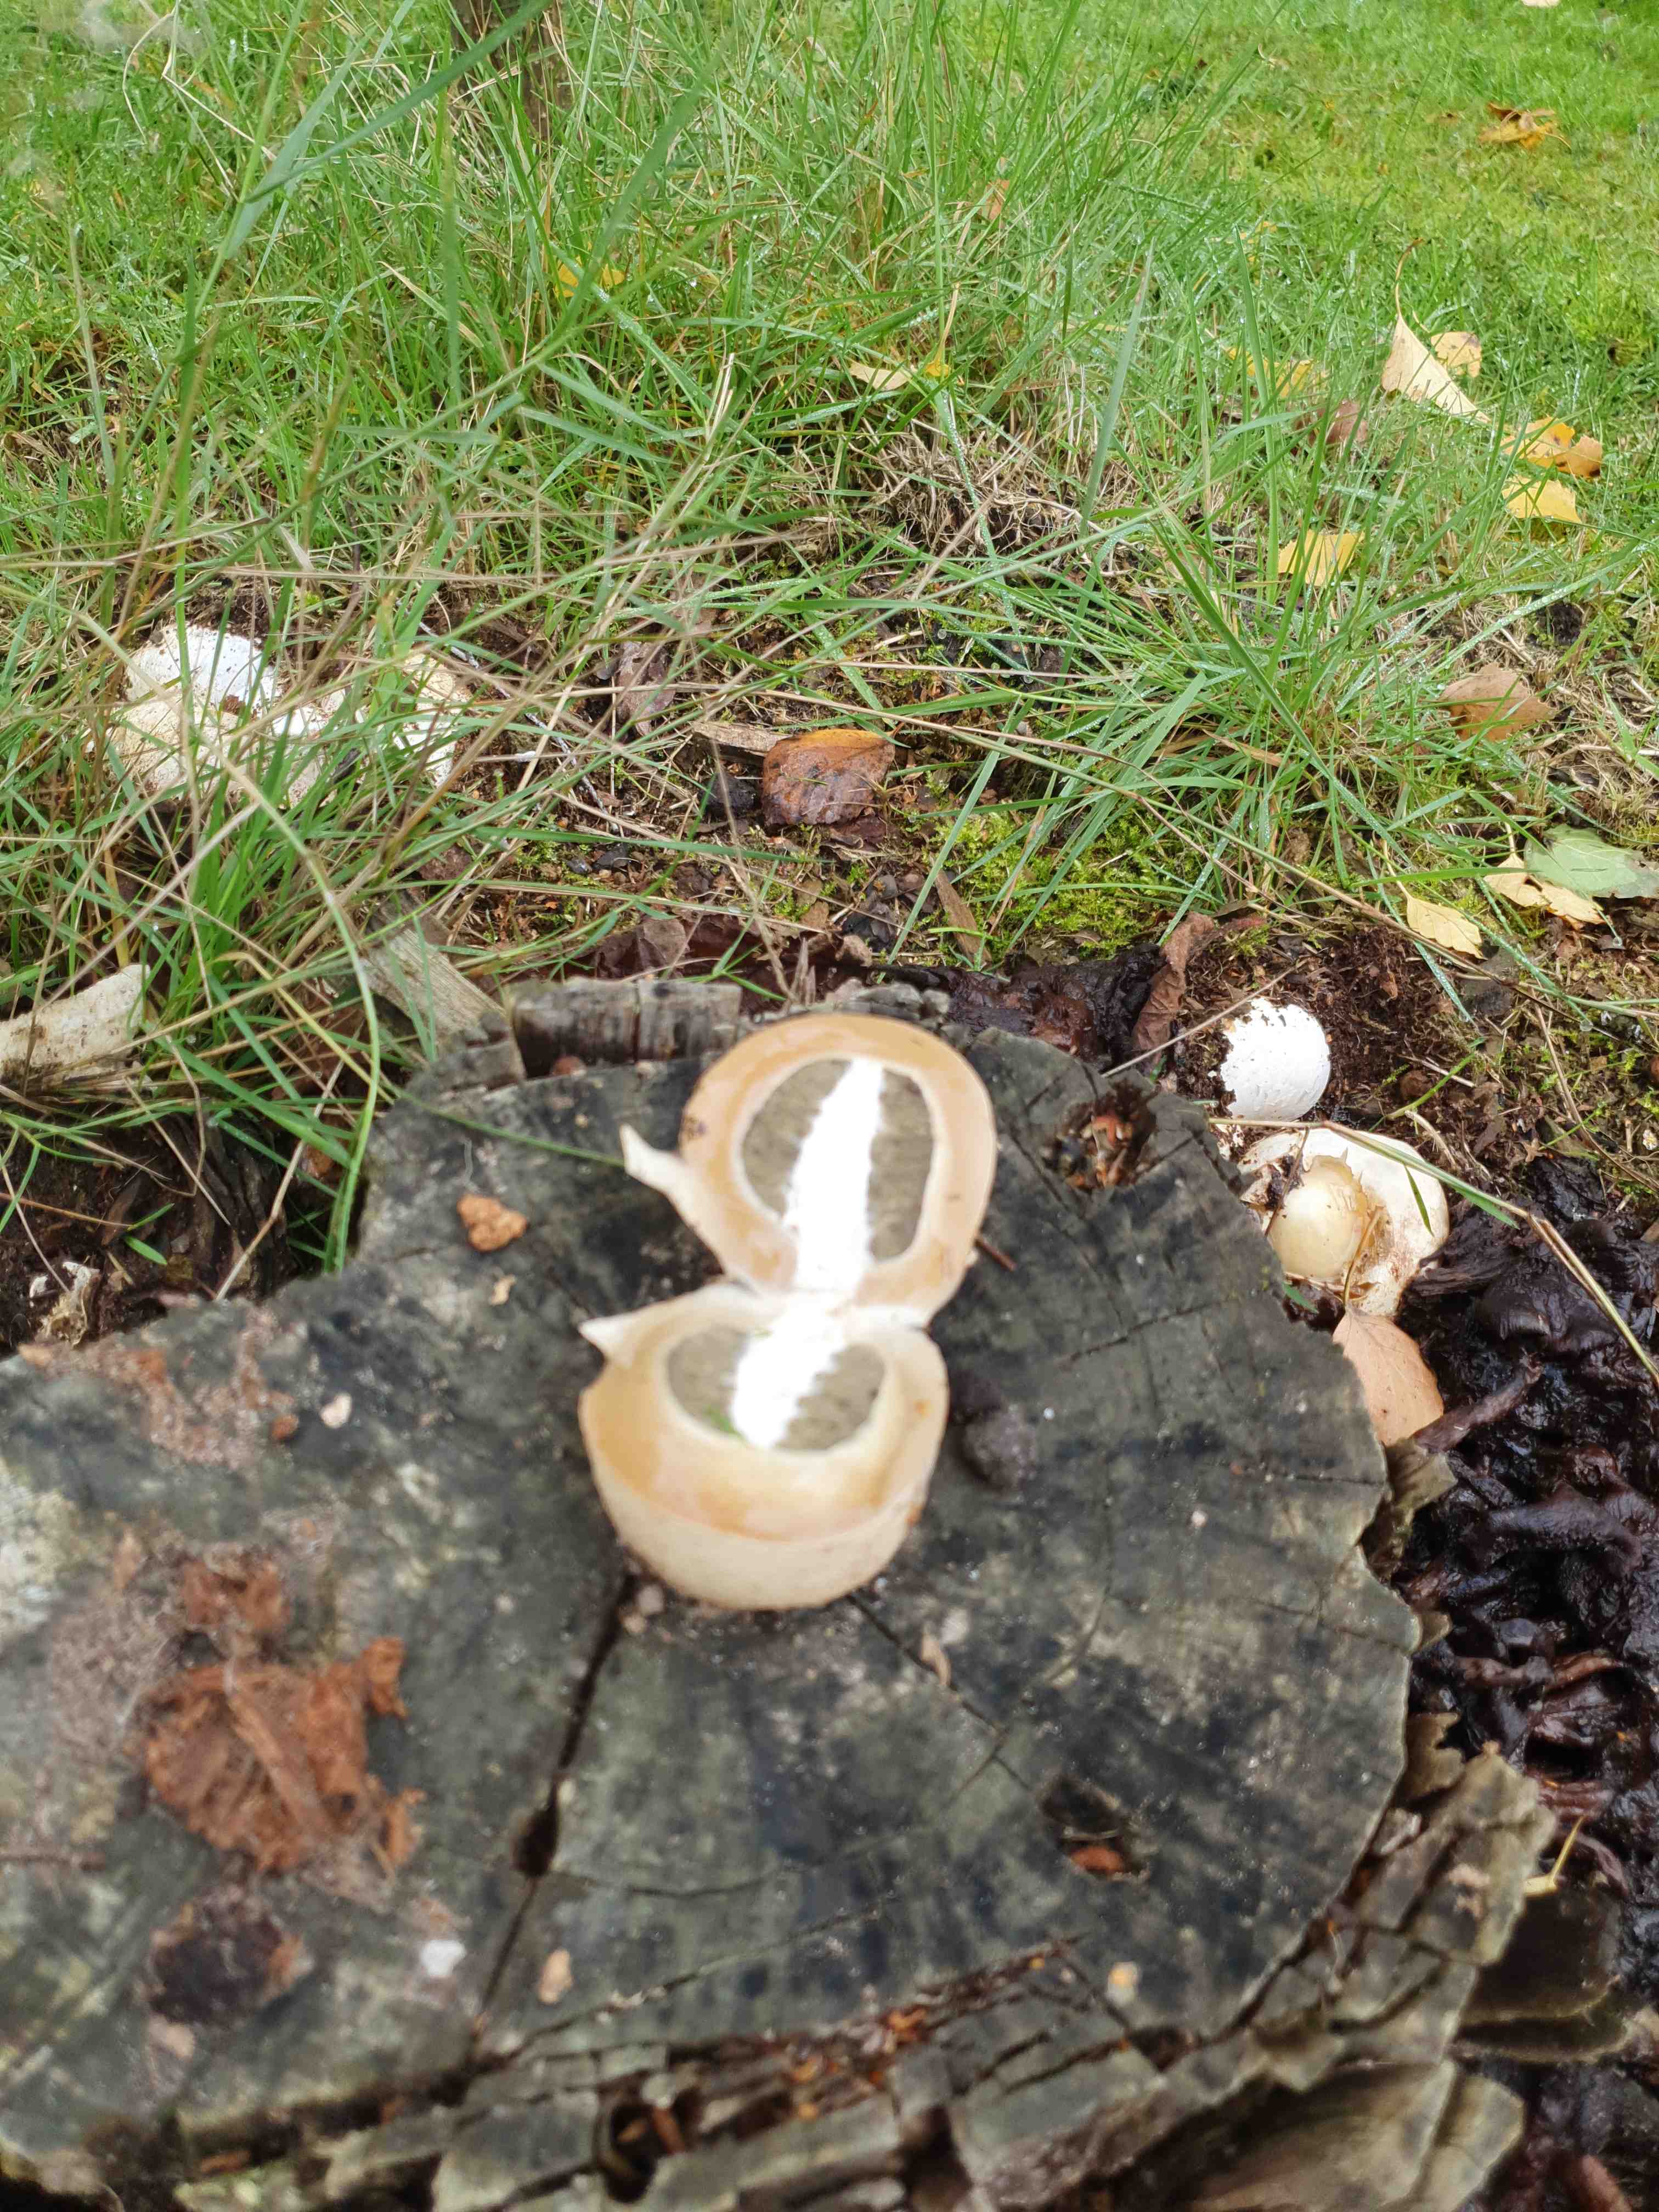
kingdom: Fungi
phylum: Basidiomycota
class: Agaricomycetes
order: Phallales
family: Phallaceae
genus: Phallus
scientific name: Phallus impudicus
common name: almindelig stinksvamp
